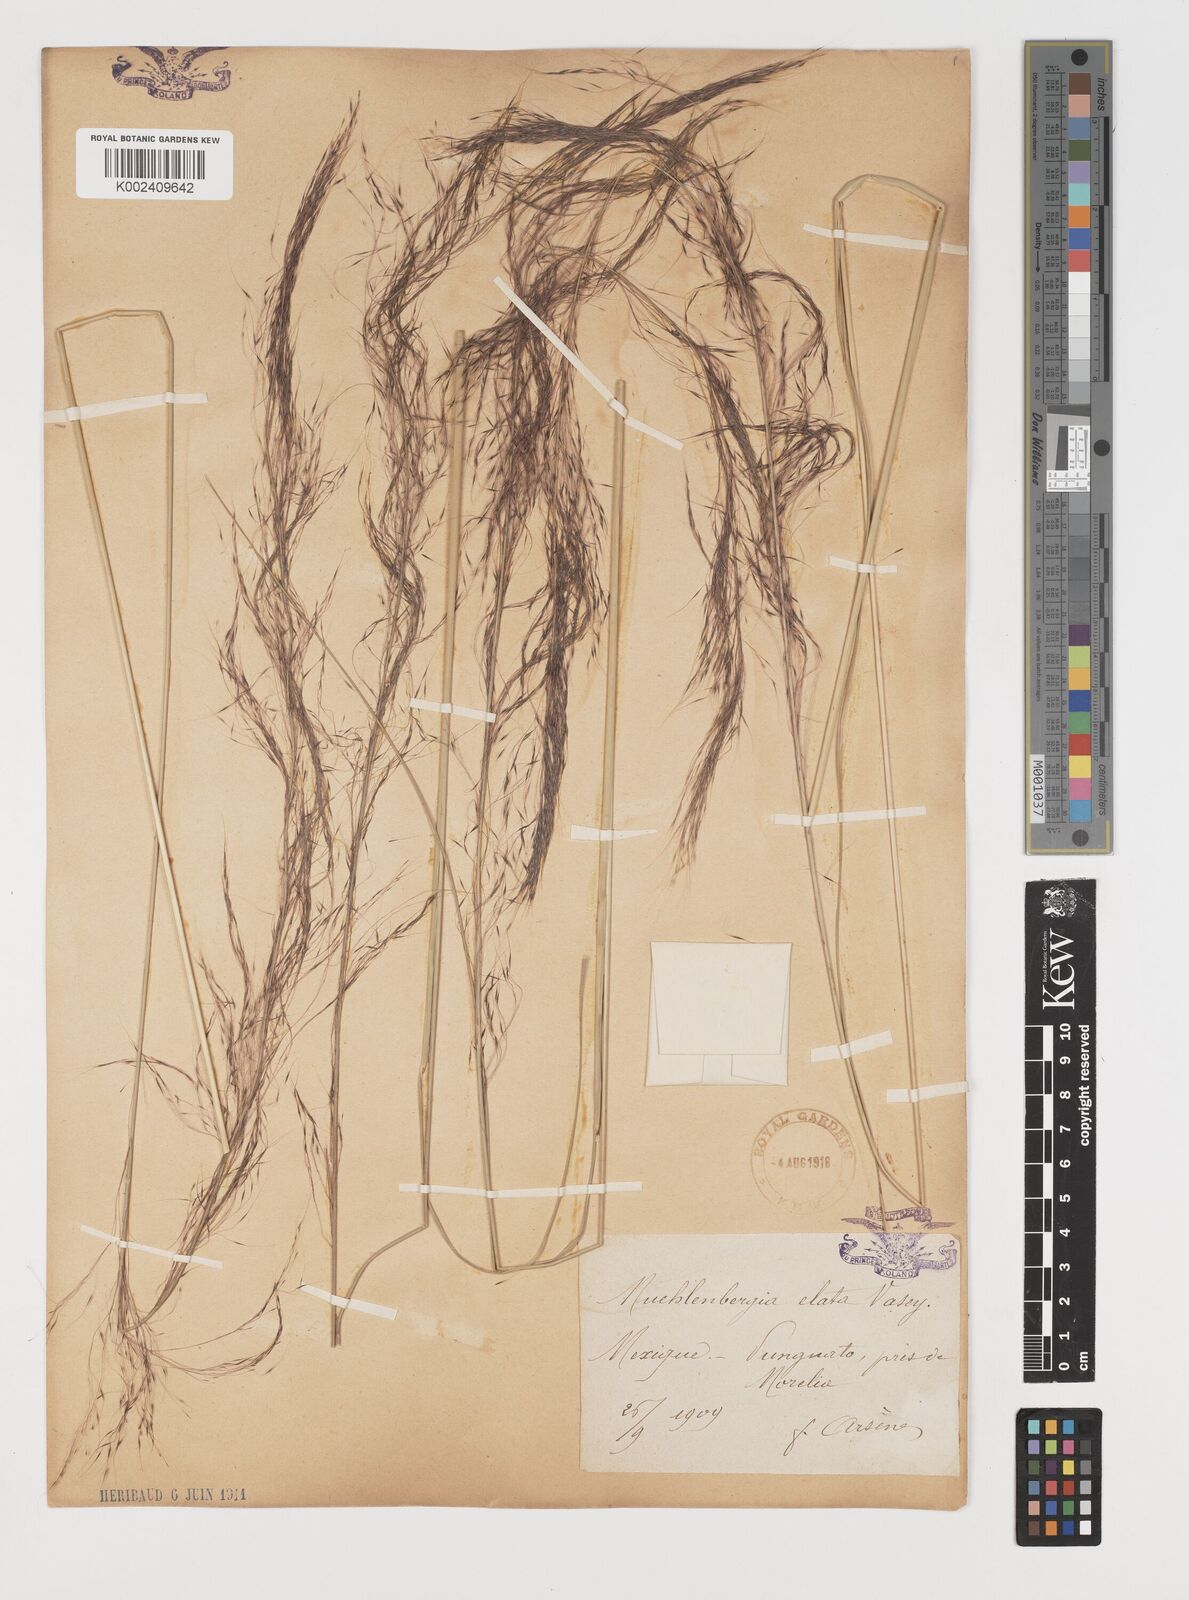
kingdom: Plantae
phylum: Tracheophyta
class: Liliopsida
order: Poales
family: Poaceae
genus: Muhlenbergia
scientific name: Muhlenbergia stricta
